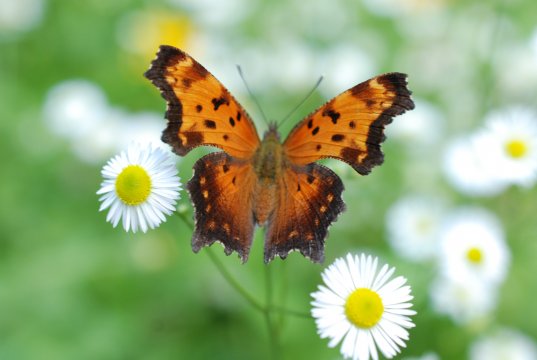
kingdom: Animalia
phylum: Arthropoda
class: Insecta
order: Lepidoptera
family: Nymphalidae
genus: Polygonia
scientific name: Polygonia progne
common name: Gray Comma
